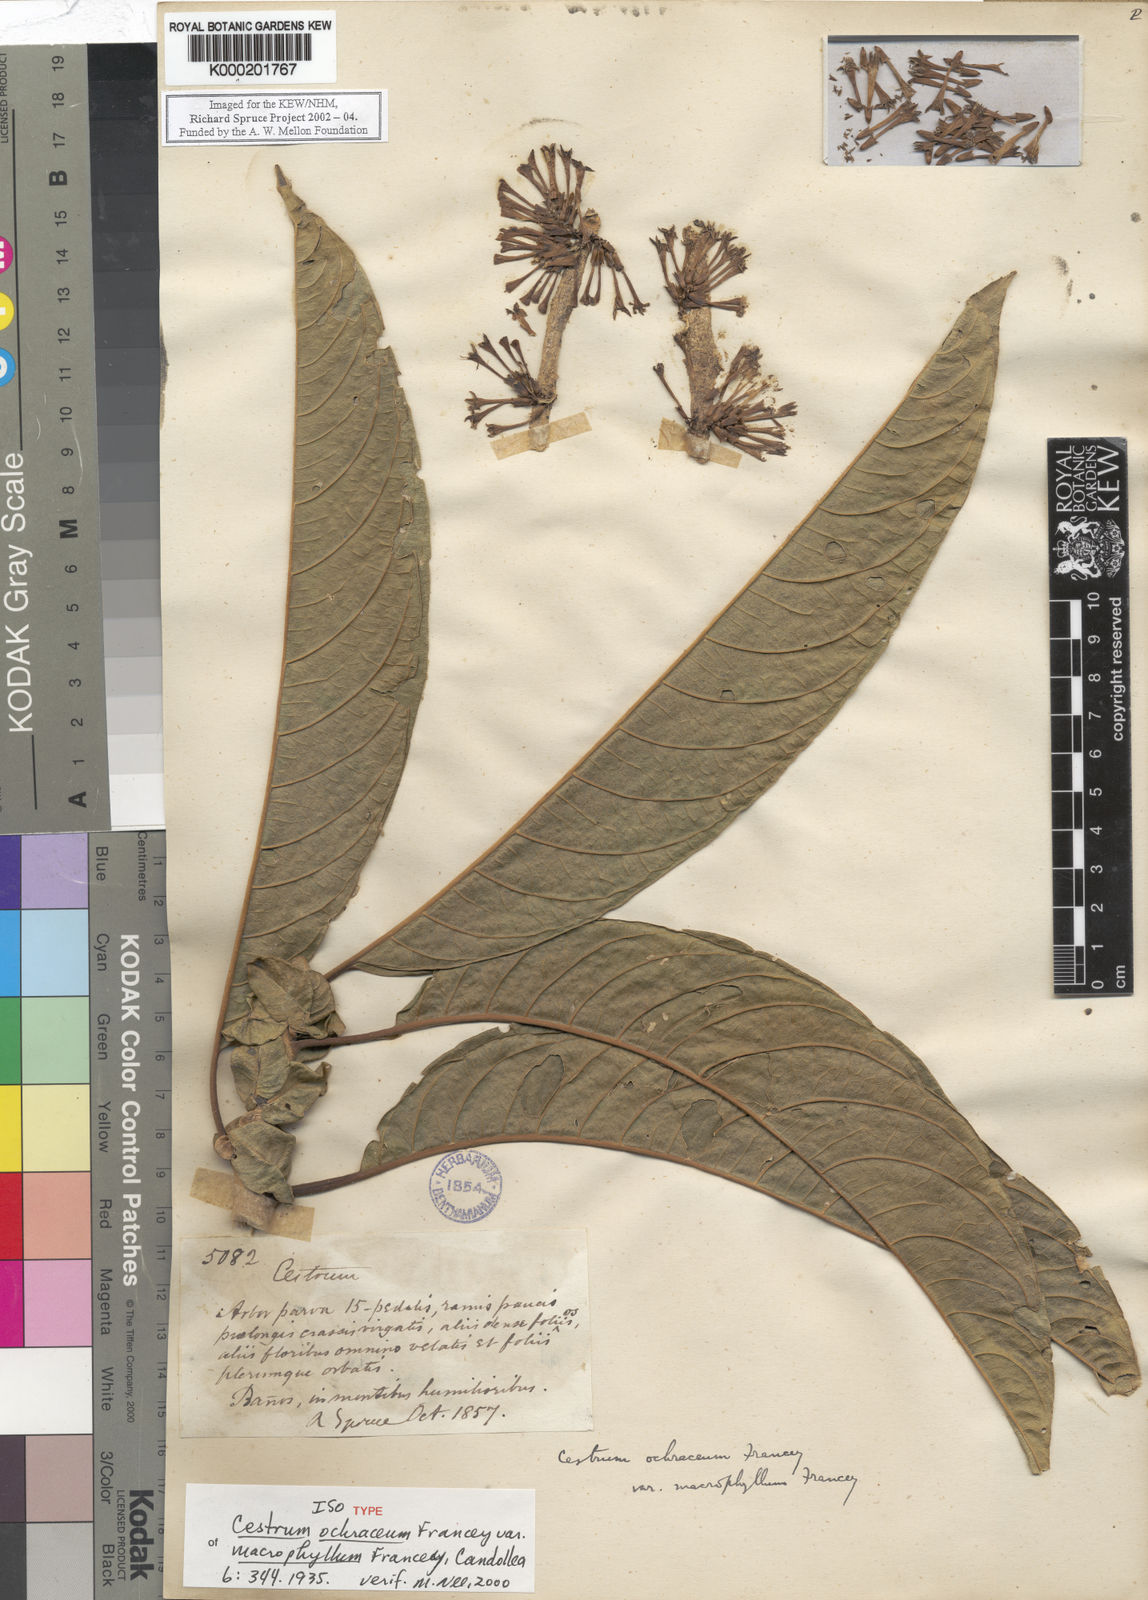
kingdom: Plantae
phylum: Tracheophyta
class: Magnoliopsida
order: Solanales
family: Solanaceae
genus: Cestrum
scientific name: Cestrum ochraceum
